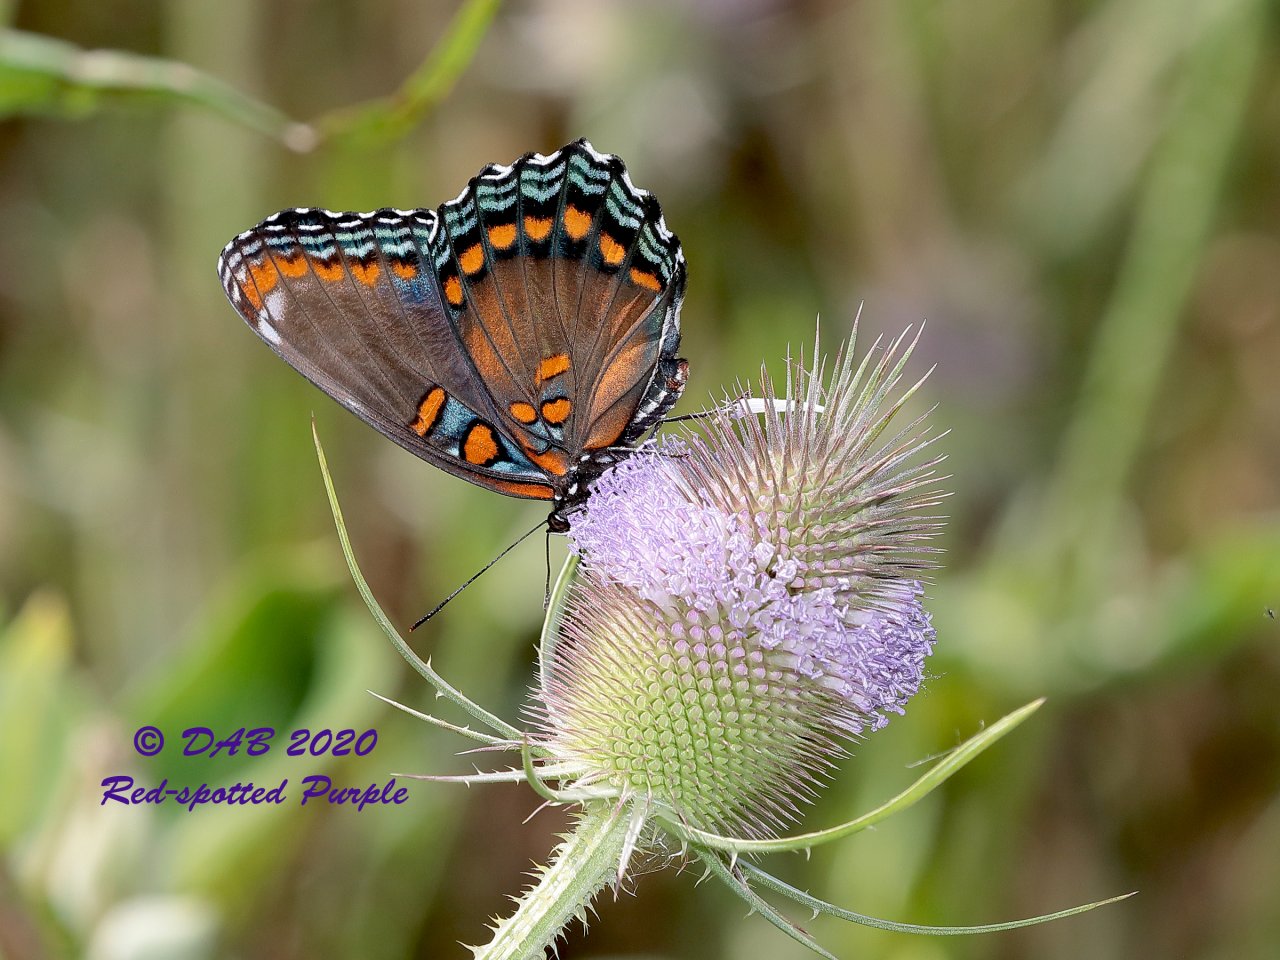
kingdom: Animalia
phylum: Arthropoda
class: Insecta
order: Lepidoptera
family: Nymphalidae
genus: Limenitis
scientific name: Limenitis astyanax
